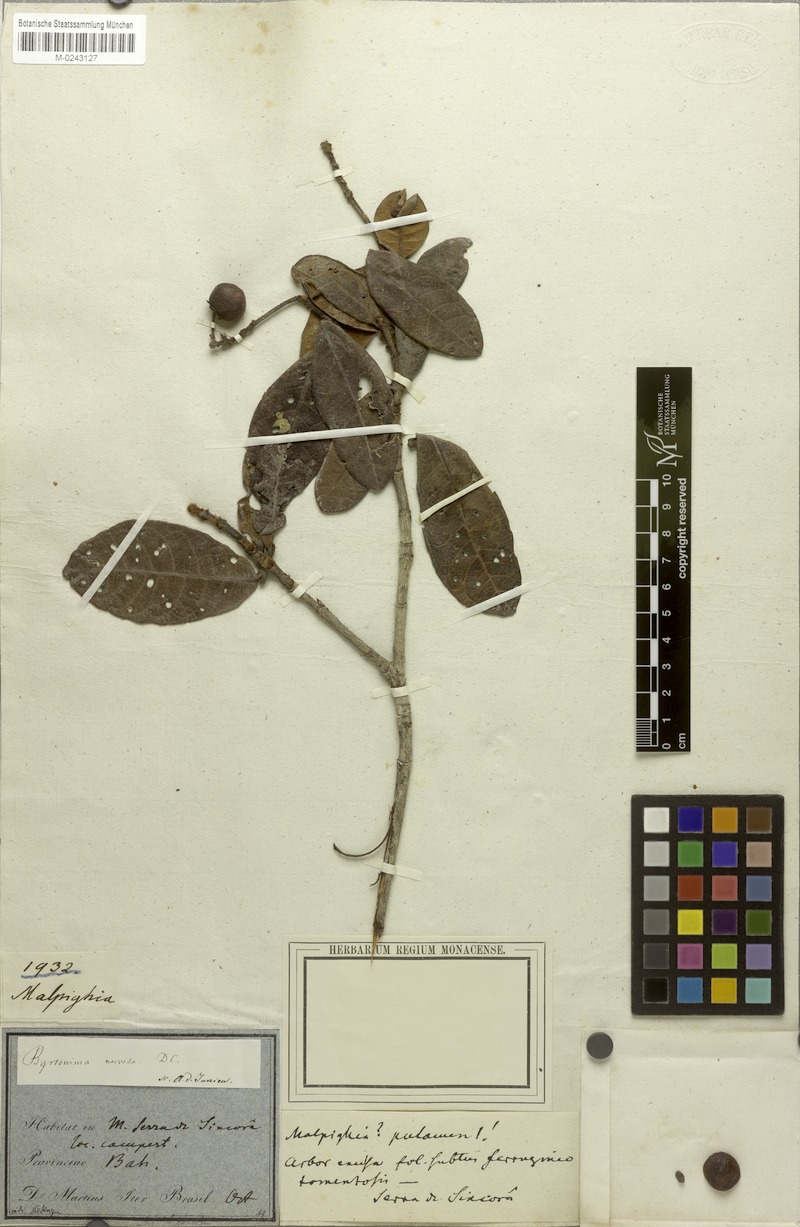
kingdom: Plantae
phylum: Tracheophyta
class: Magnoliopsida
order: Malpighiales
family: Malpighiaceae
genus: Byrsonima
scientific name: Byrsonima macrophylla
